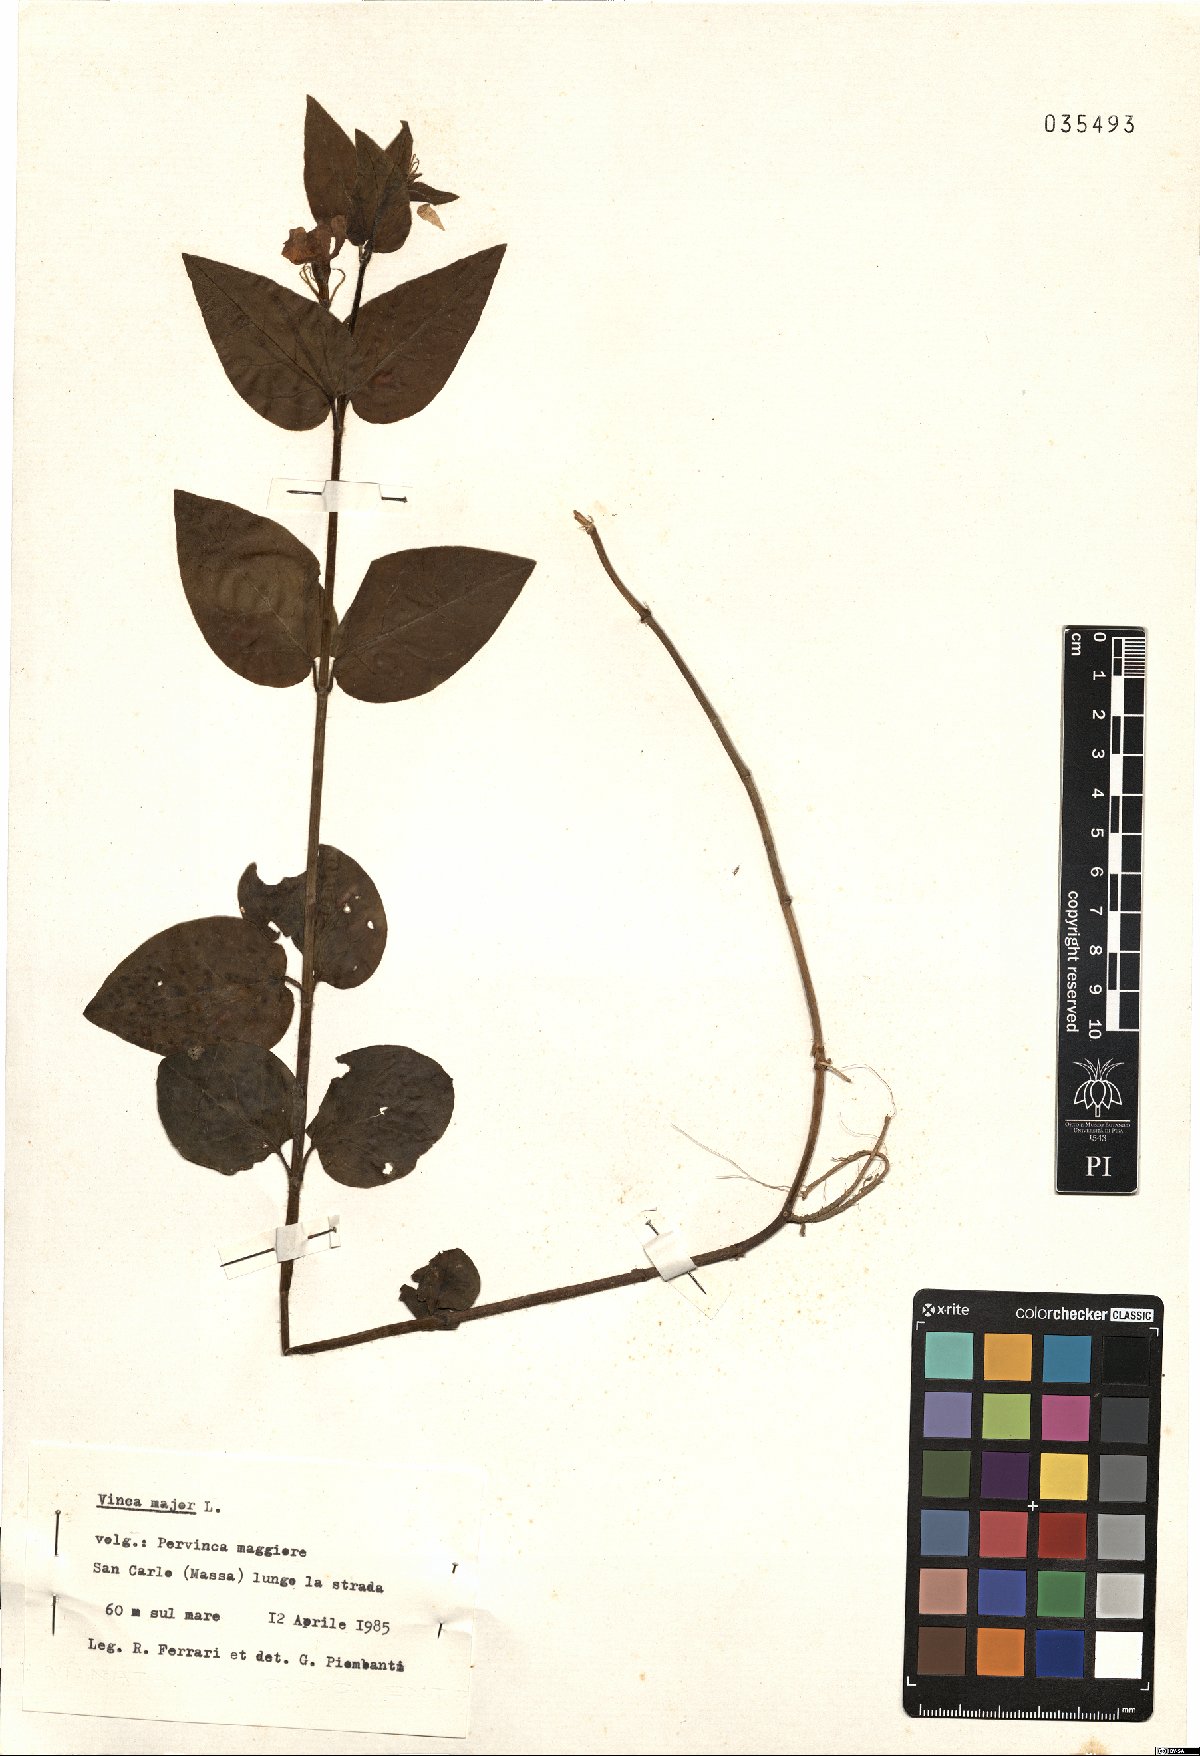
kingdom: Plantae
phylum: Tracheophyta
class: Magnoliopsida
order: Gentianales
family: Apocynaceae
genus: Vinca
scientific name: Vinca major
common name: Greater periwinkle
